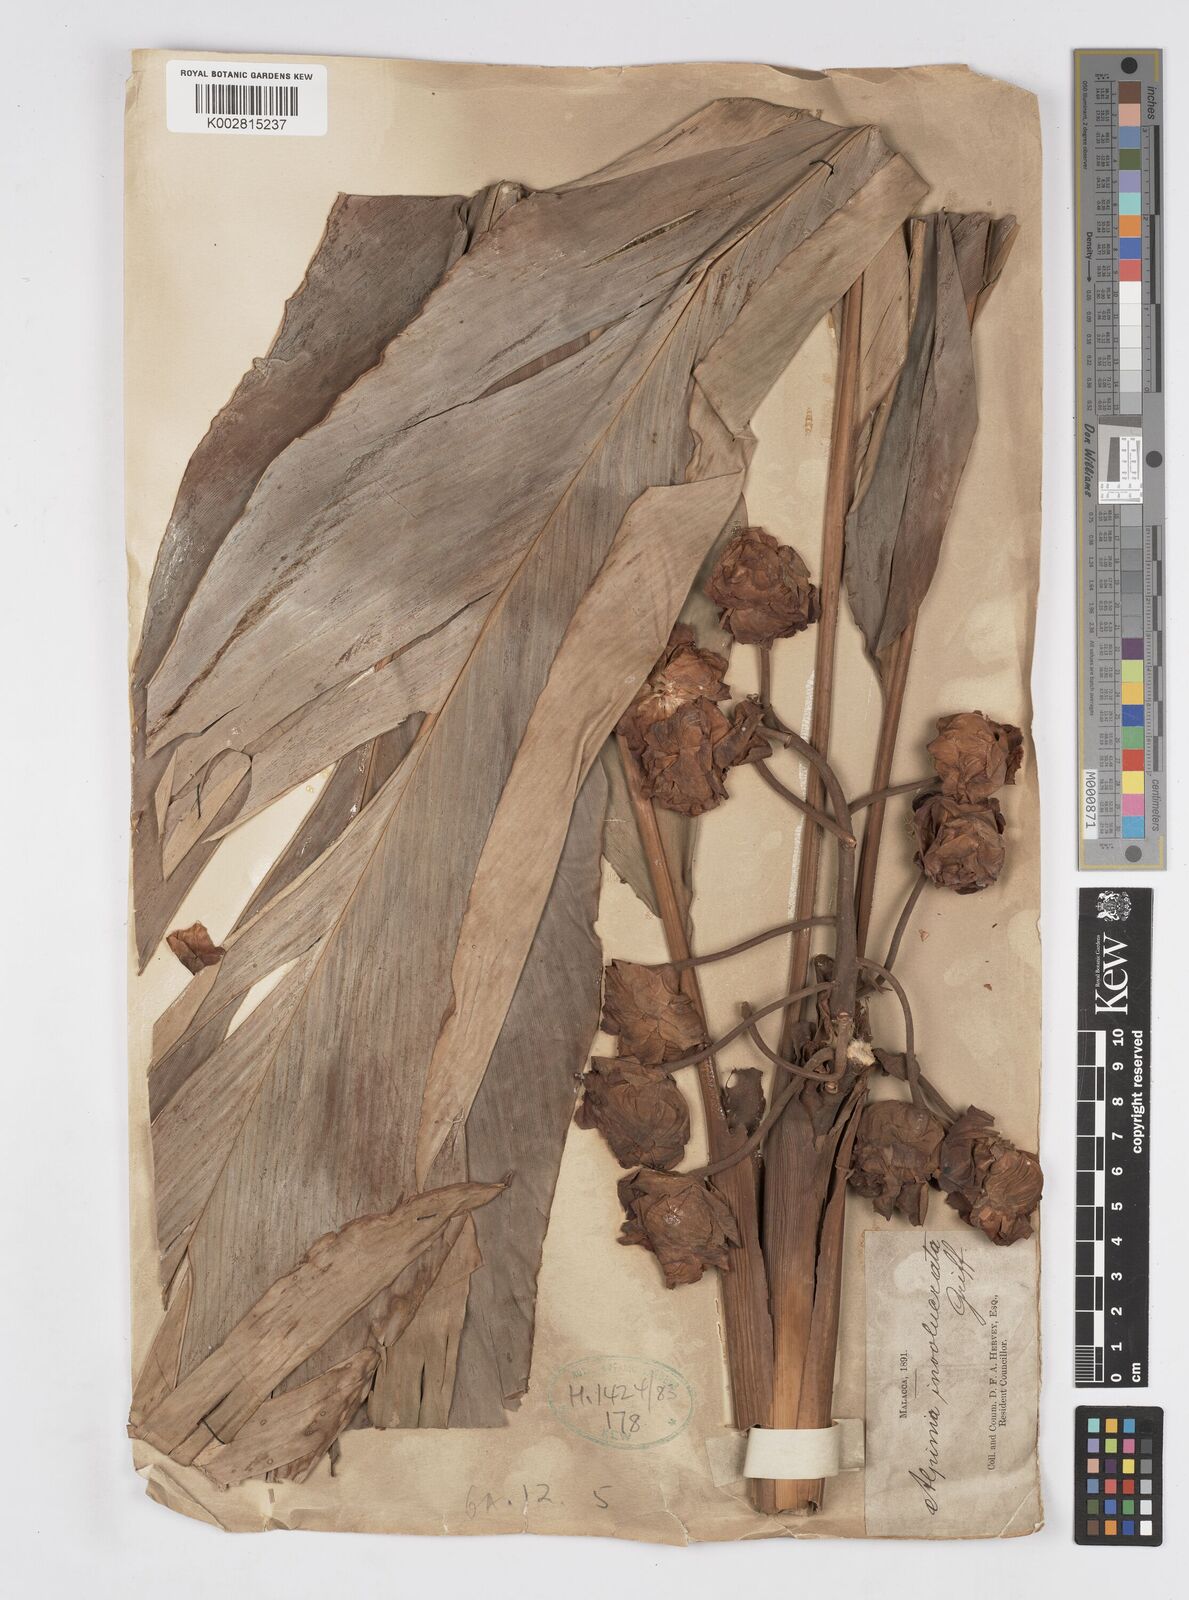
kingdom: Plantae
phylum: Tracheophyta
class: Liliopsida
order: Zingiberales
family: Zingiberaceae
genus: Alpinia
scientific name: Alpinia javanica
